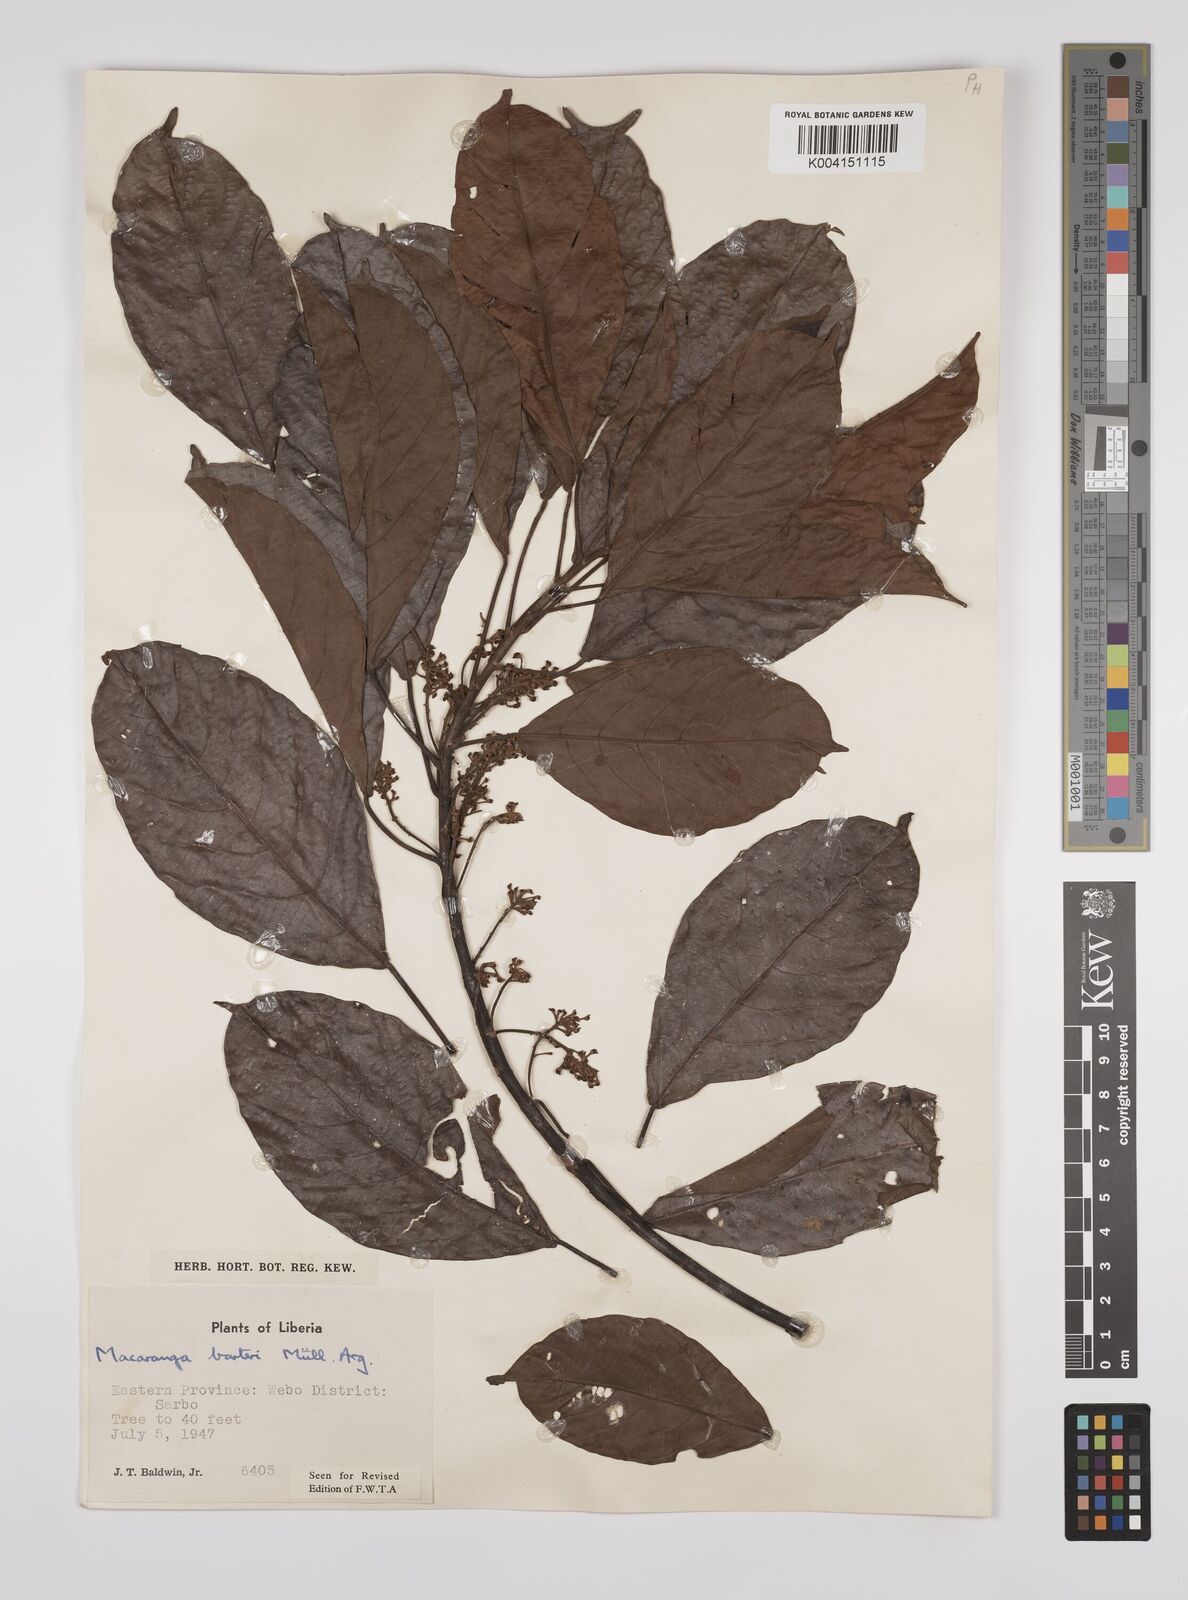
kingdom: Plantae
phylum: Tracheophyta
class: Magnoliopsida
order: Malpighiales
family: Euphorbiaceae
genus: Macaranga
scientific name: Macaranga barteri
